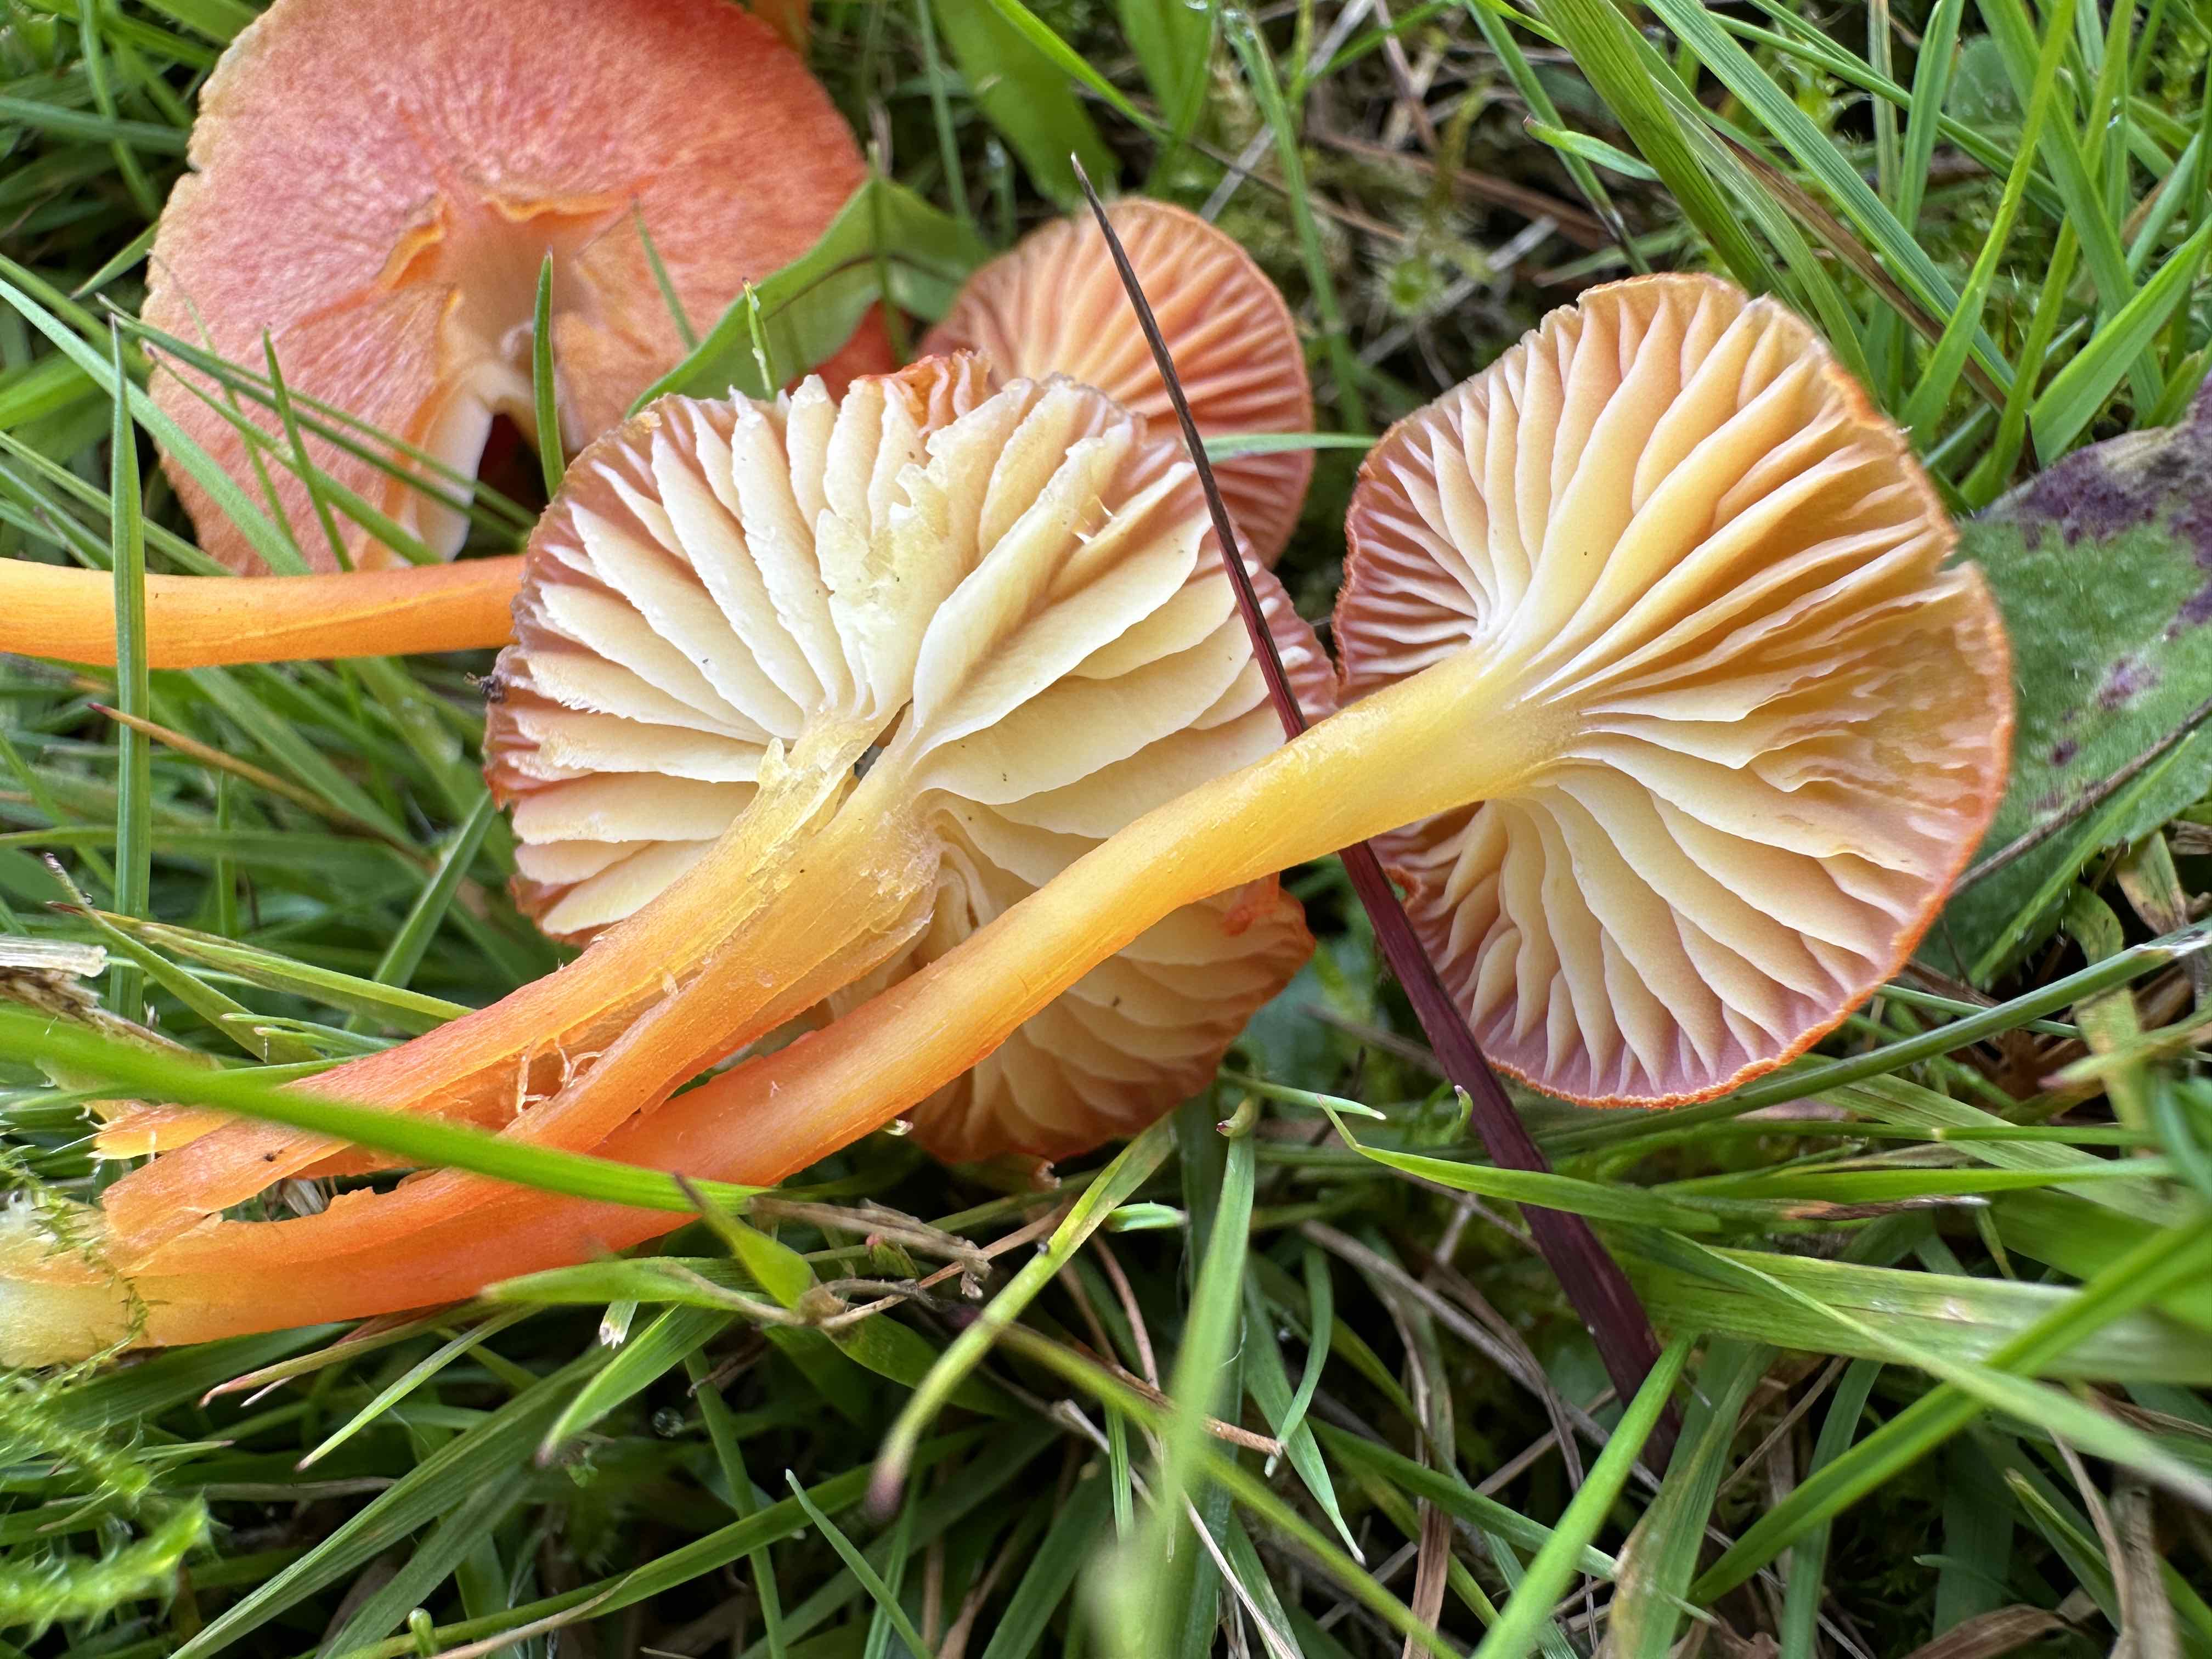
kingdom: Fungi
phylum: Basidiomycota
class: Agaricomycetes
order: Agaricales
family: Hygrophoraceae
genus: Hygrocybe
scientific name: Hygrocybe helobia
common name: hvidløgs-vokshat
